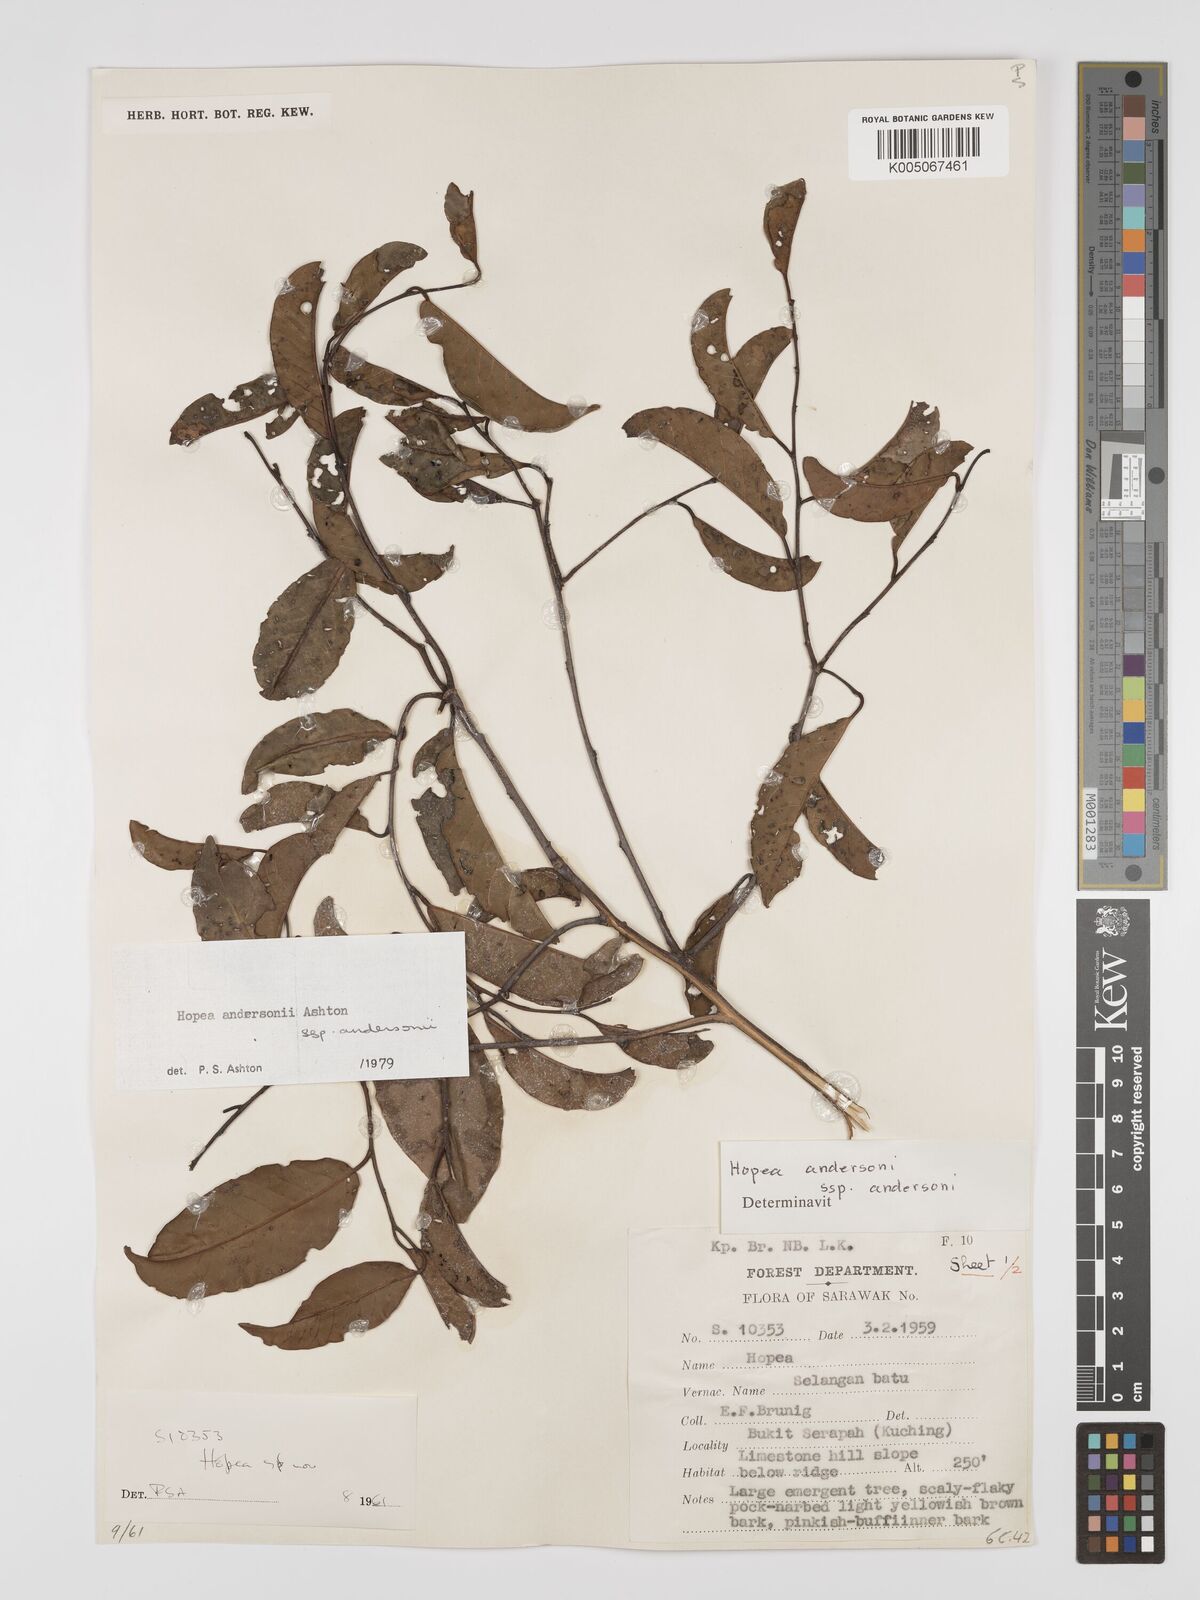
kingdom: Plantae
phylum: Tracheophyta
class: Magnoliopsida
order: Malvales
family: Dipterocarpaceae
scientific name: Dipterocarpaceae
